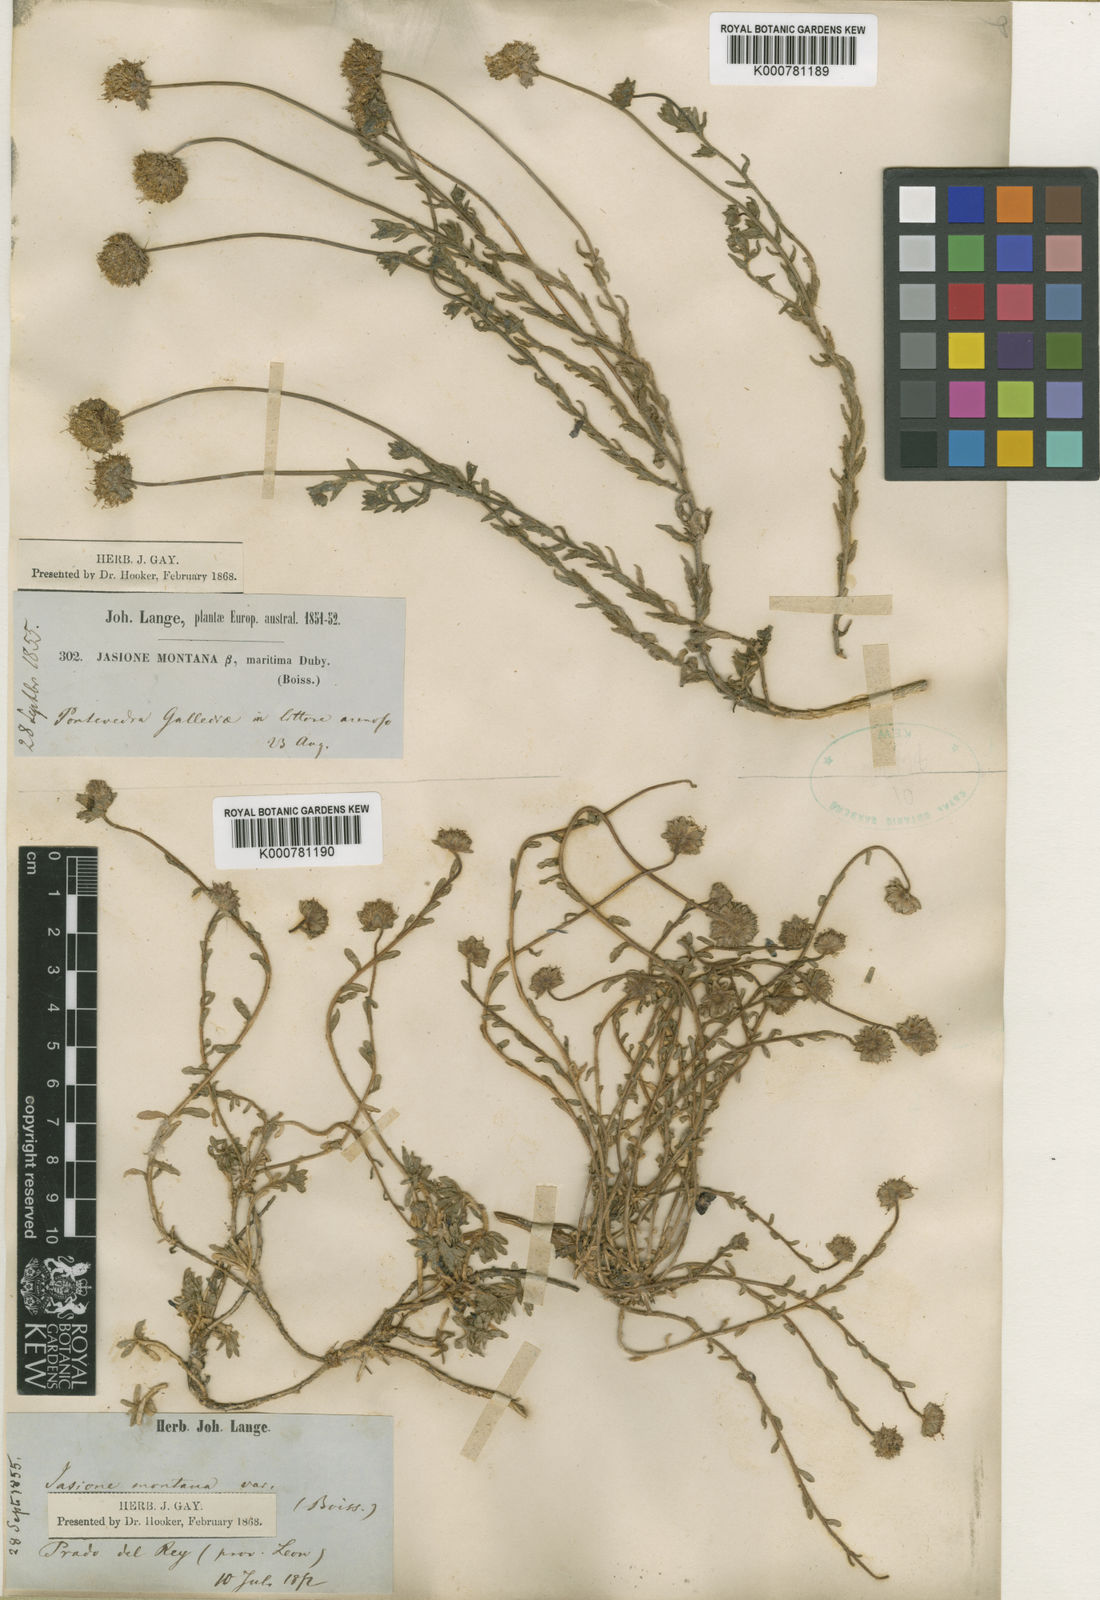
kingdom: Plantae
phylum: Tracheophyta
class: Magnoliopsida
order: Asterales
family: Campanulaceae
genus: Jasione
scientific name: Jasione montana
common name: Sheep's-bit
